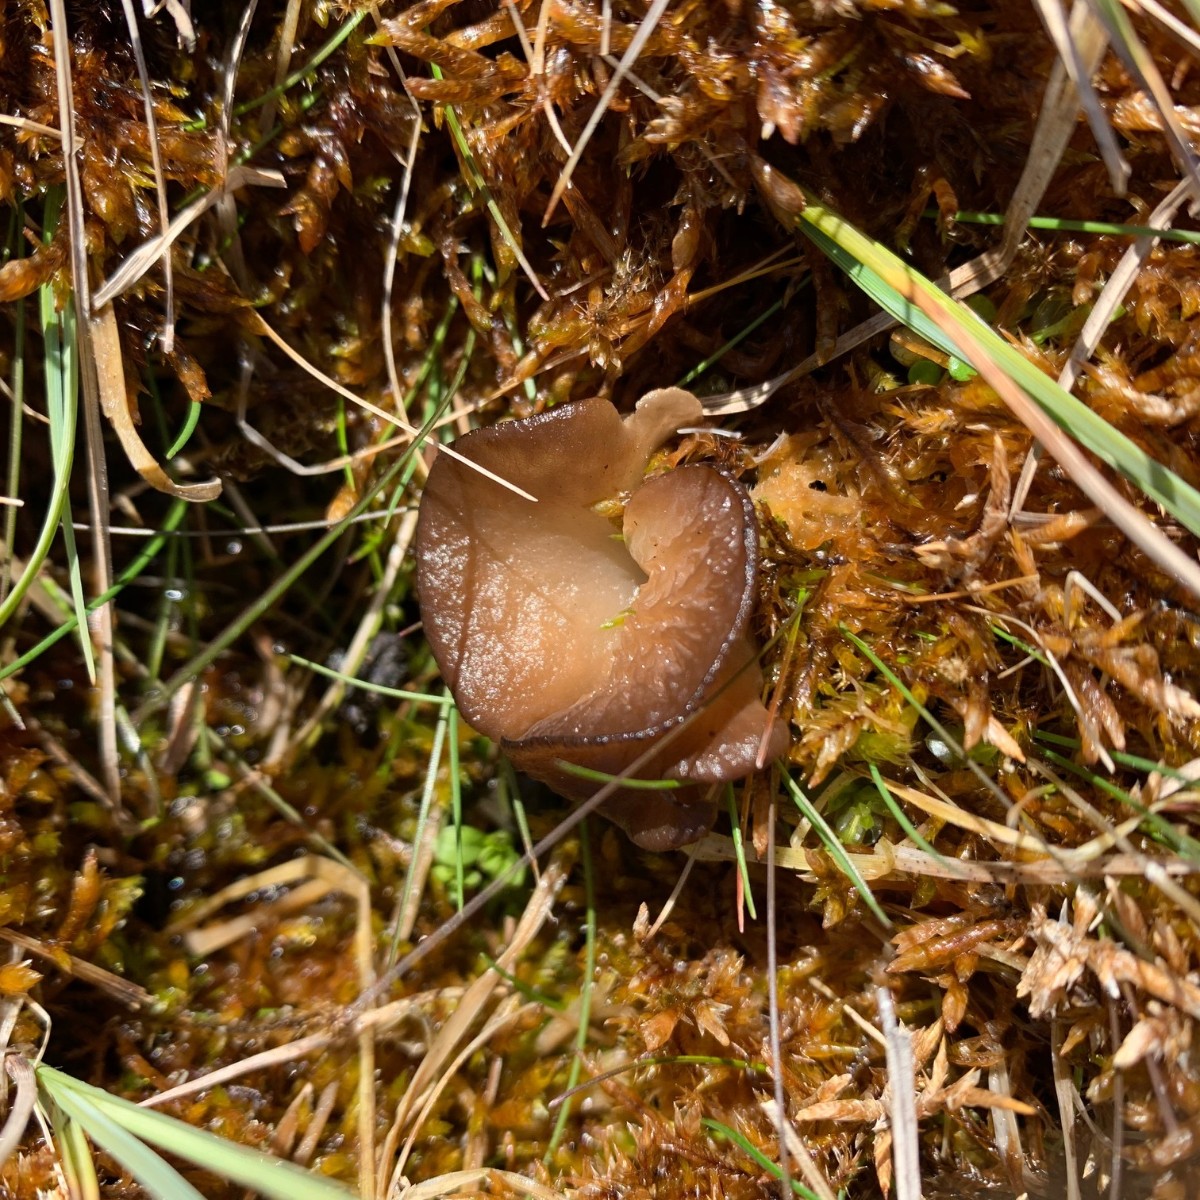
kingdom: Fungi
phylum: Basidiomycota
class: Agaricomycetes
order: Agaricales
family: Hygrophoraceae
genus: Arrhenia
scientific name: Arrhenia lobata
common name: siddende fontænehat
